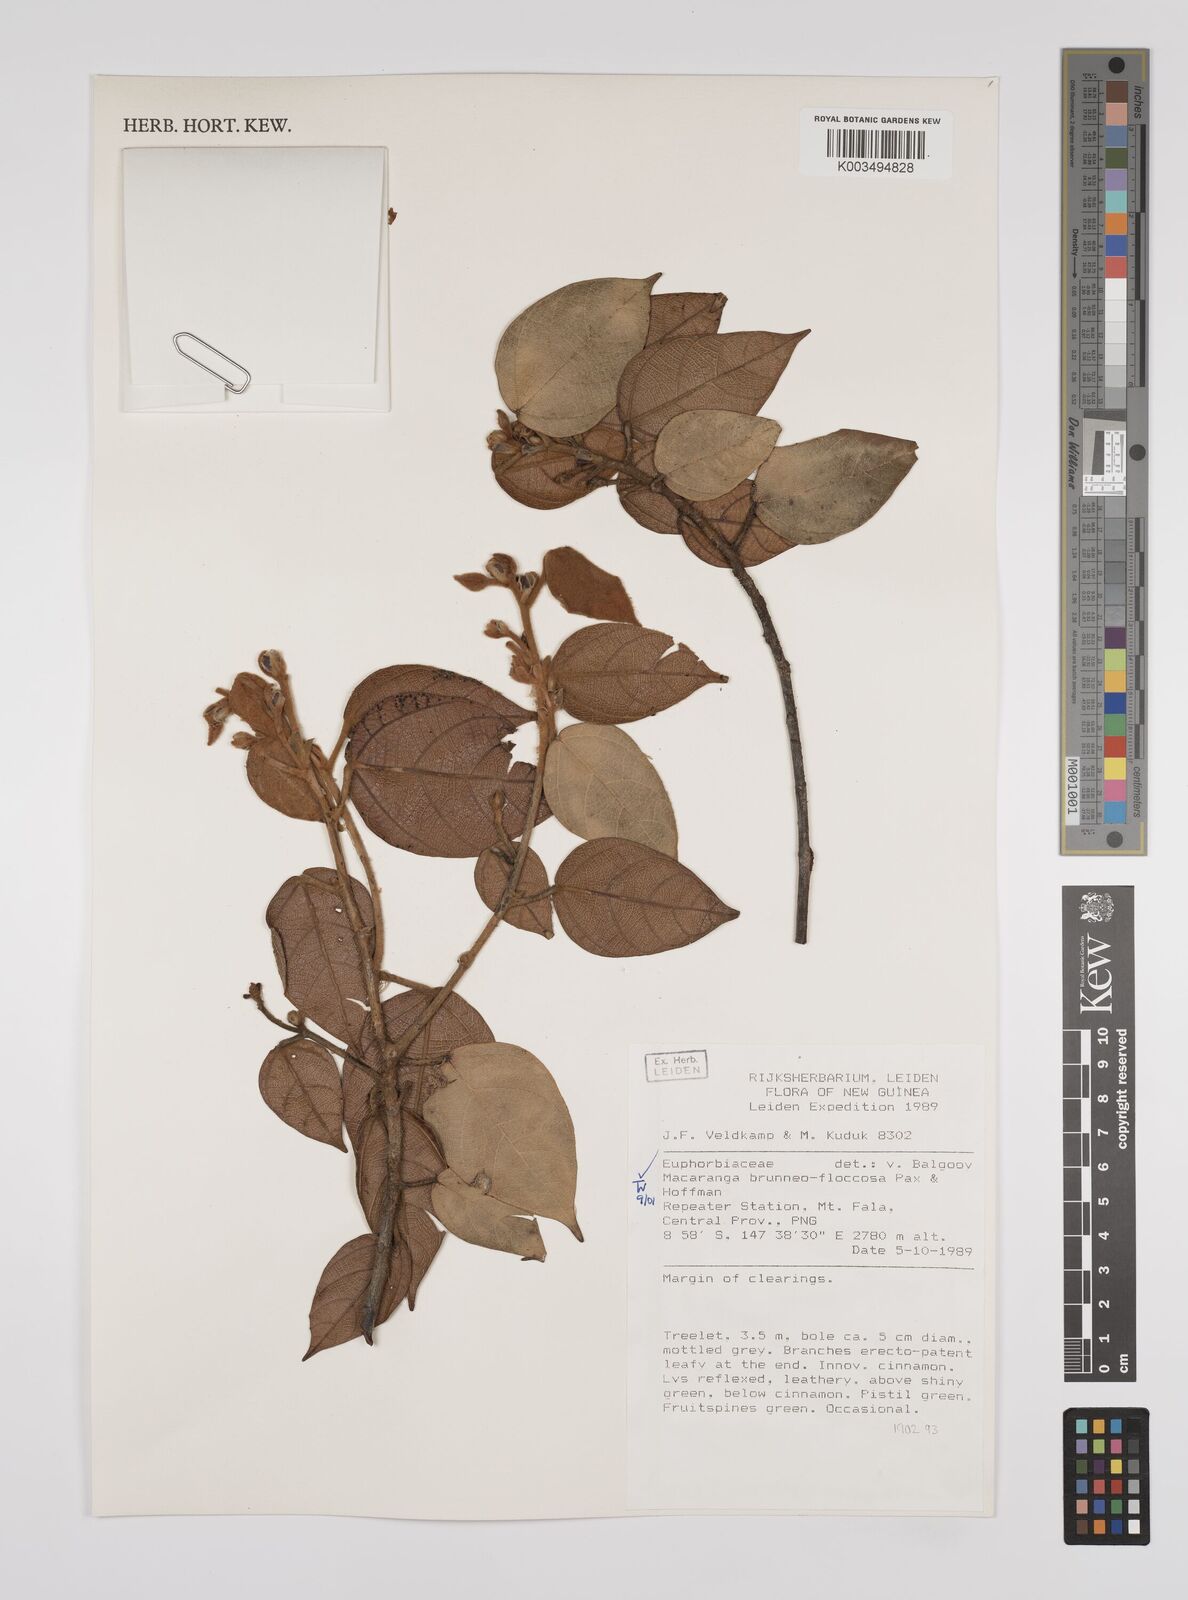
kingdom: Plantae
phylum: Tracheophyta
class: Magnoliopsida
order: Malpighiales
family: Euphorbiaceae
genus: Macaranga
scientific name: Macaranga brunneofloccosa
